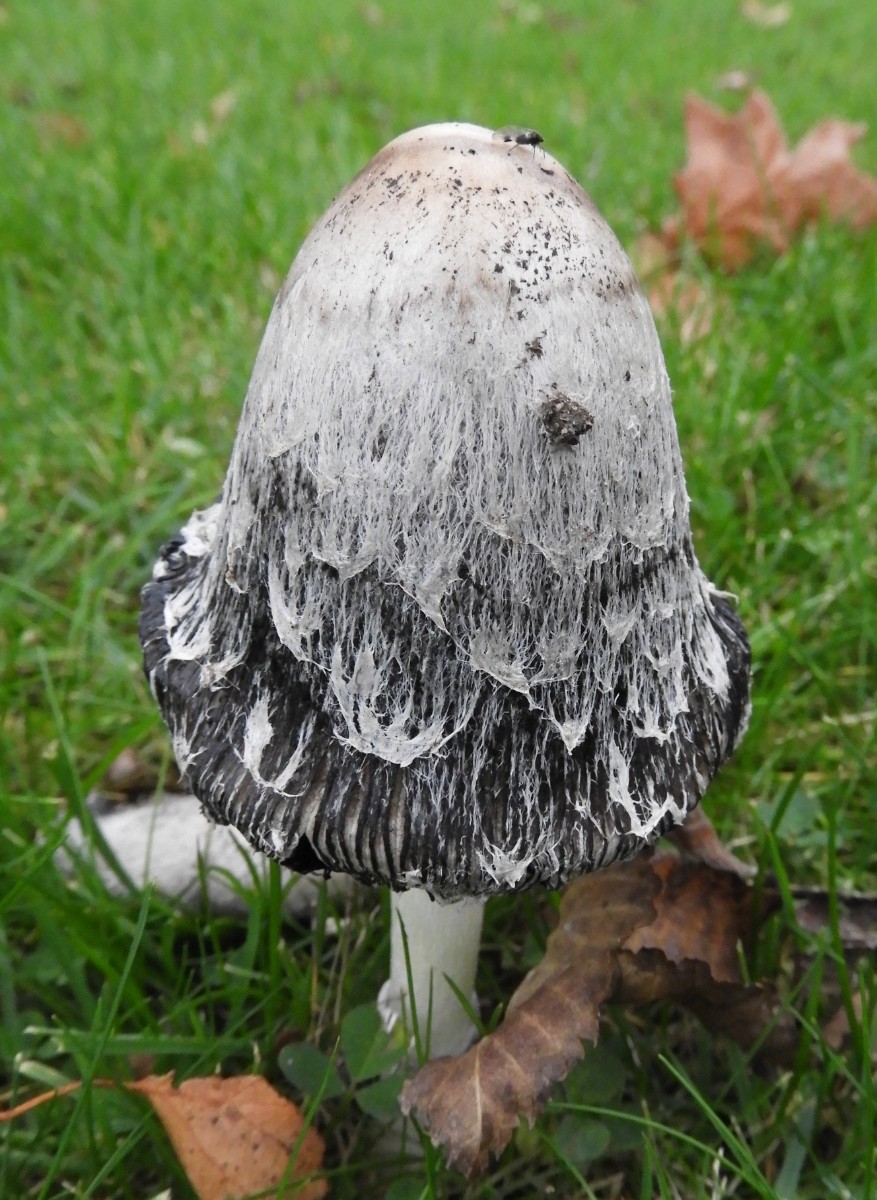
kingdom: Fungi
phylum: Basidiomycota
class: Agaricomycetes
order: Agaricales
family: Agaricaceae
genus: Coprinus
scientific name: Coprinus comatus
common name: stor parykhat
